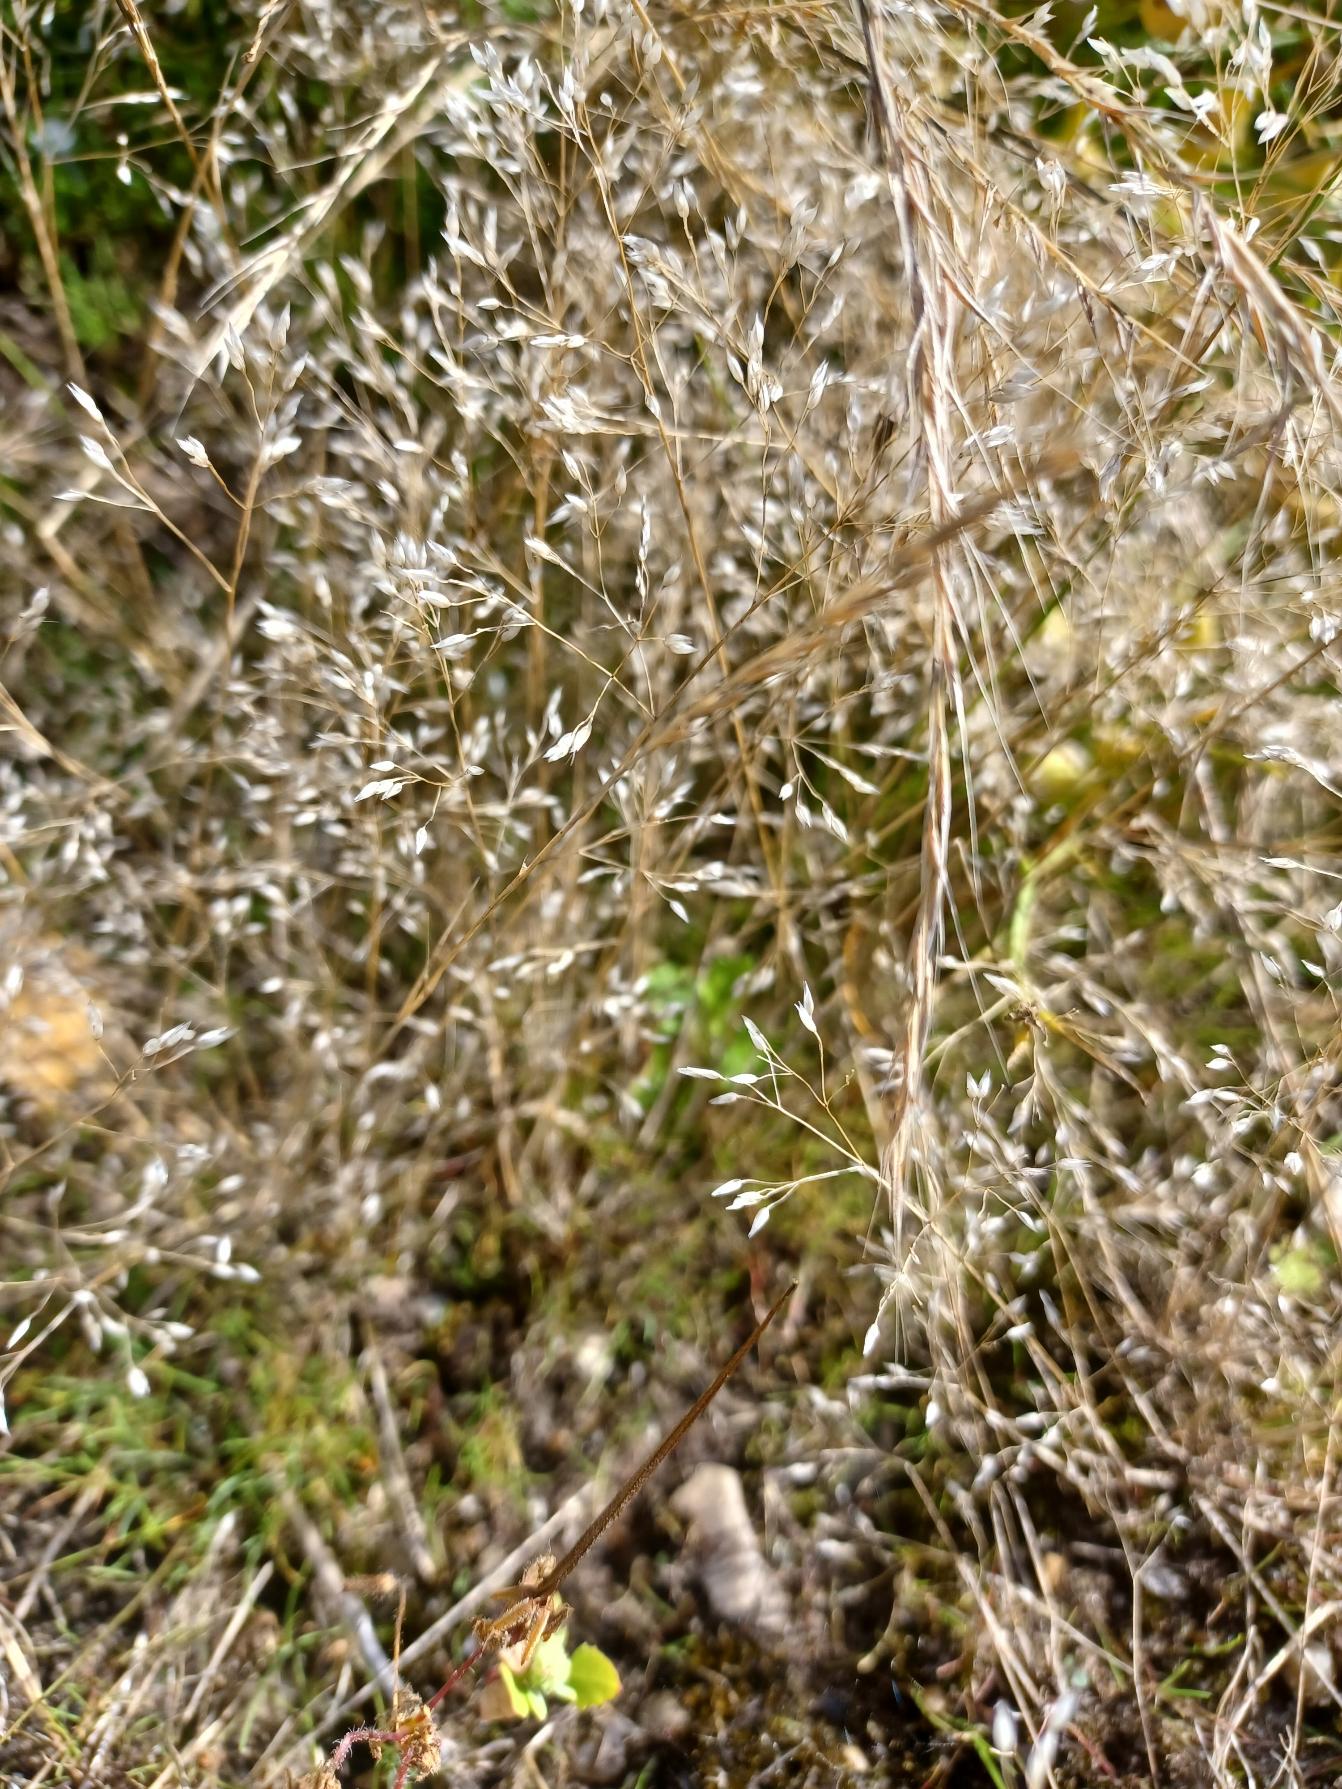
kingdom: Plantae
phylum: Tracheophyta
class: Liliopsida
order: Poales
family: Poaceae
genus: Aira
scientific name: Aira caryophyllea
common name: Udspærret dværgbunke
